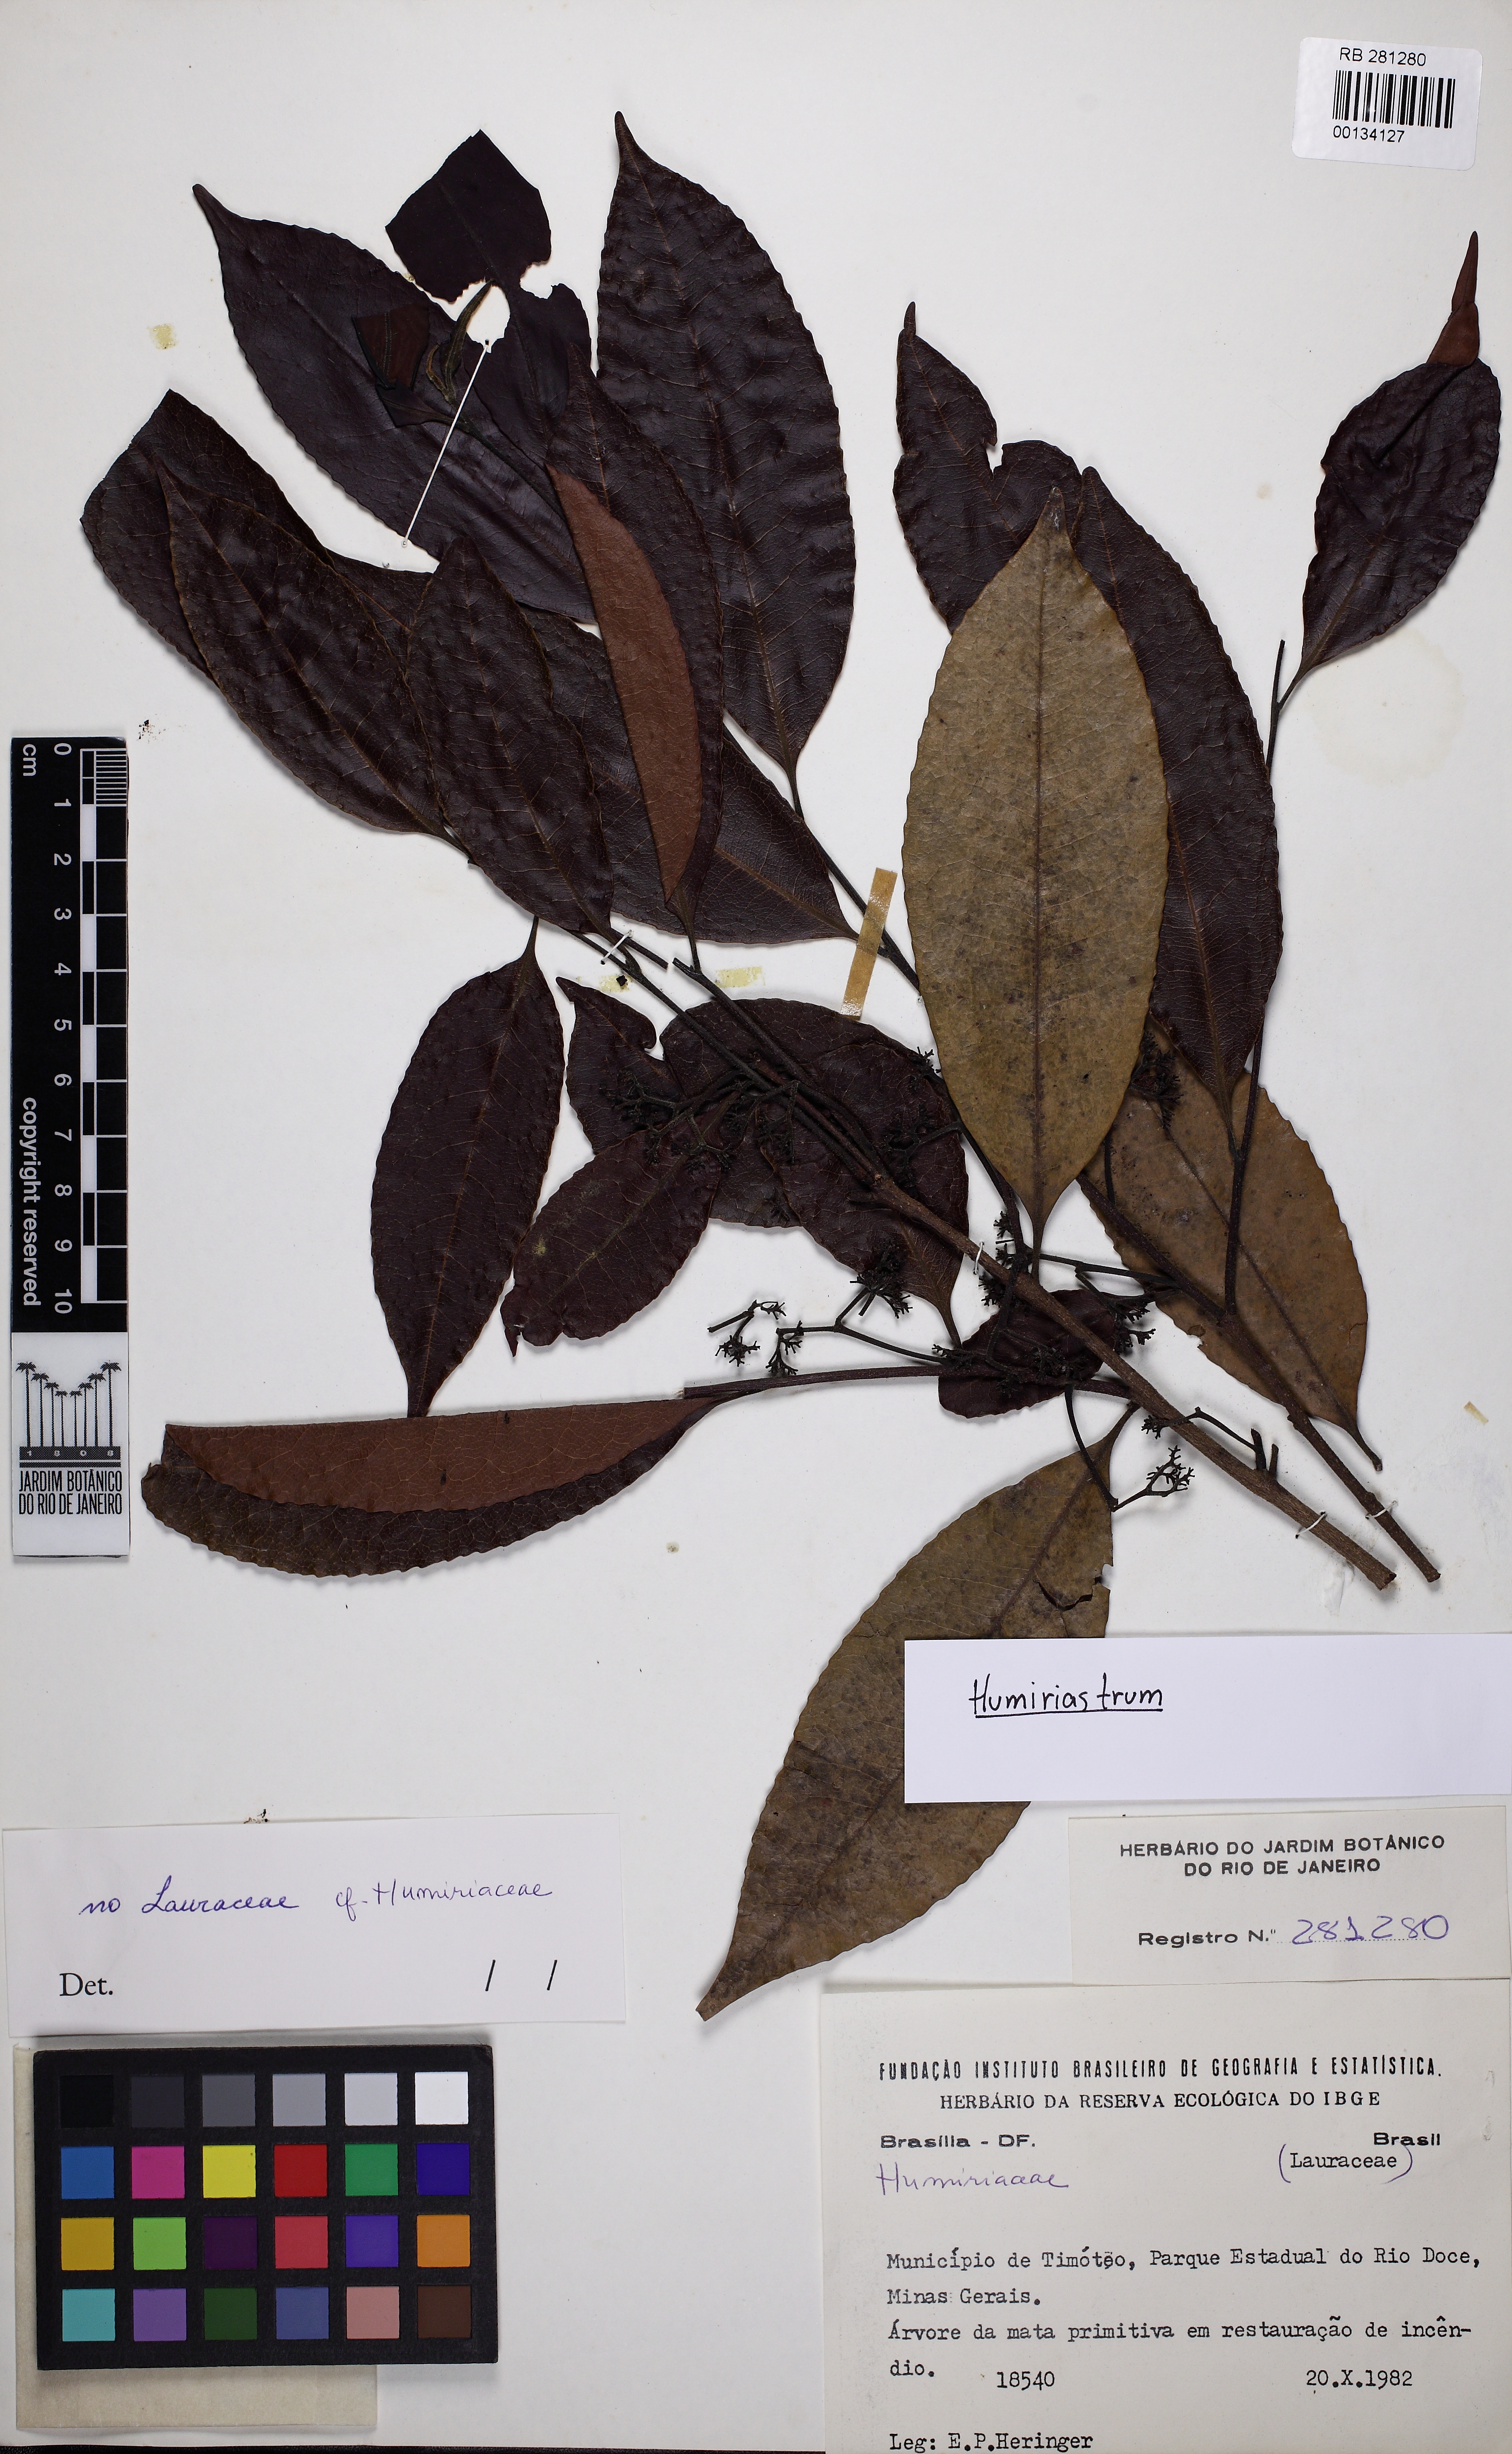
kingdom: Plantae
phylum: Tracheophyta
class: Magnoliopsida
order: Malpighiales
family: Humiriaceae
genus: Humiriastrum
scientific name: Humiriastrum
